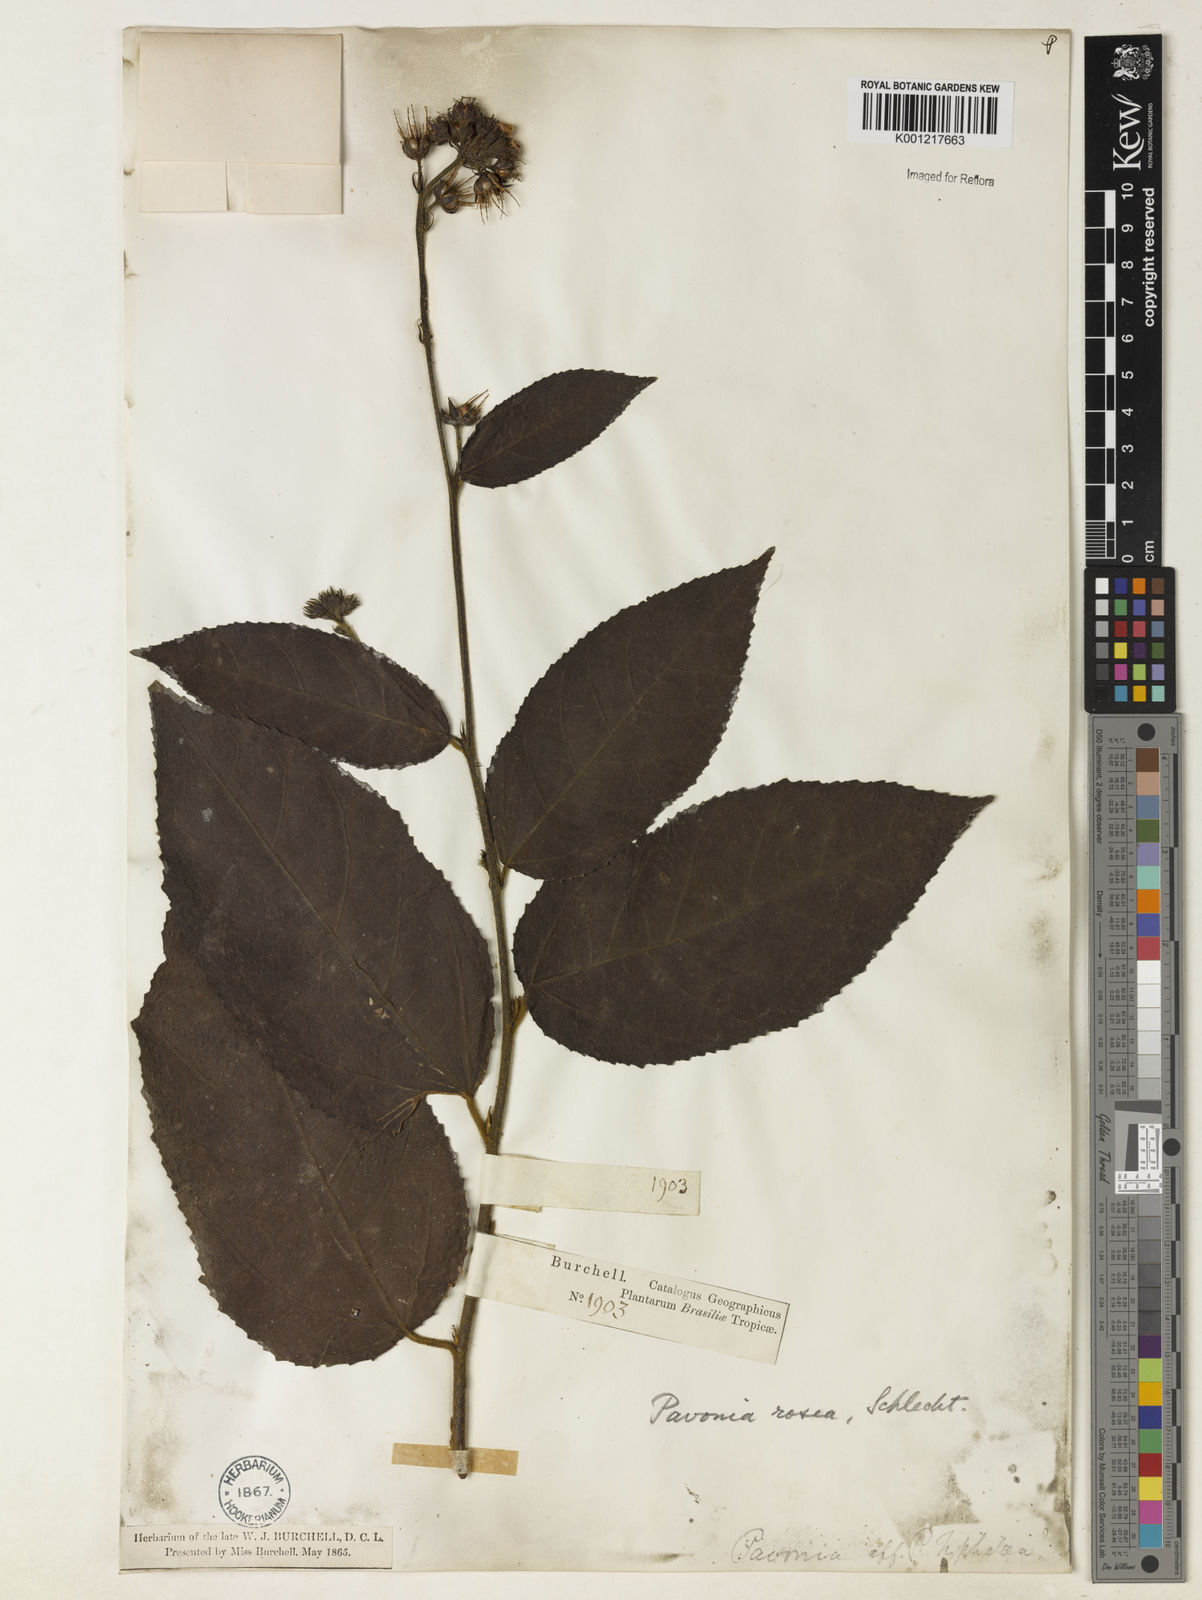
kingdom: Plantae
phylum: Tracheophyta
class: Magnoliopsida
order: Malvales
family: Malvaceae
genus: Pavonia
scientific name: Pavonia schiedeana
